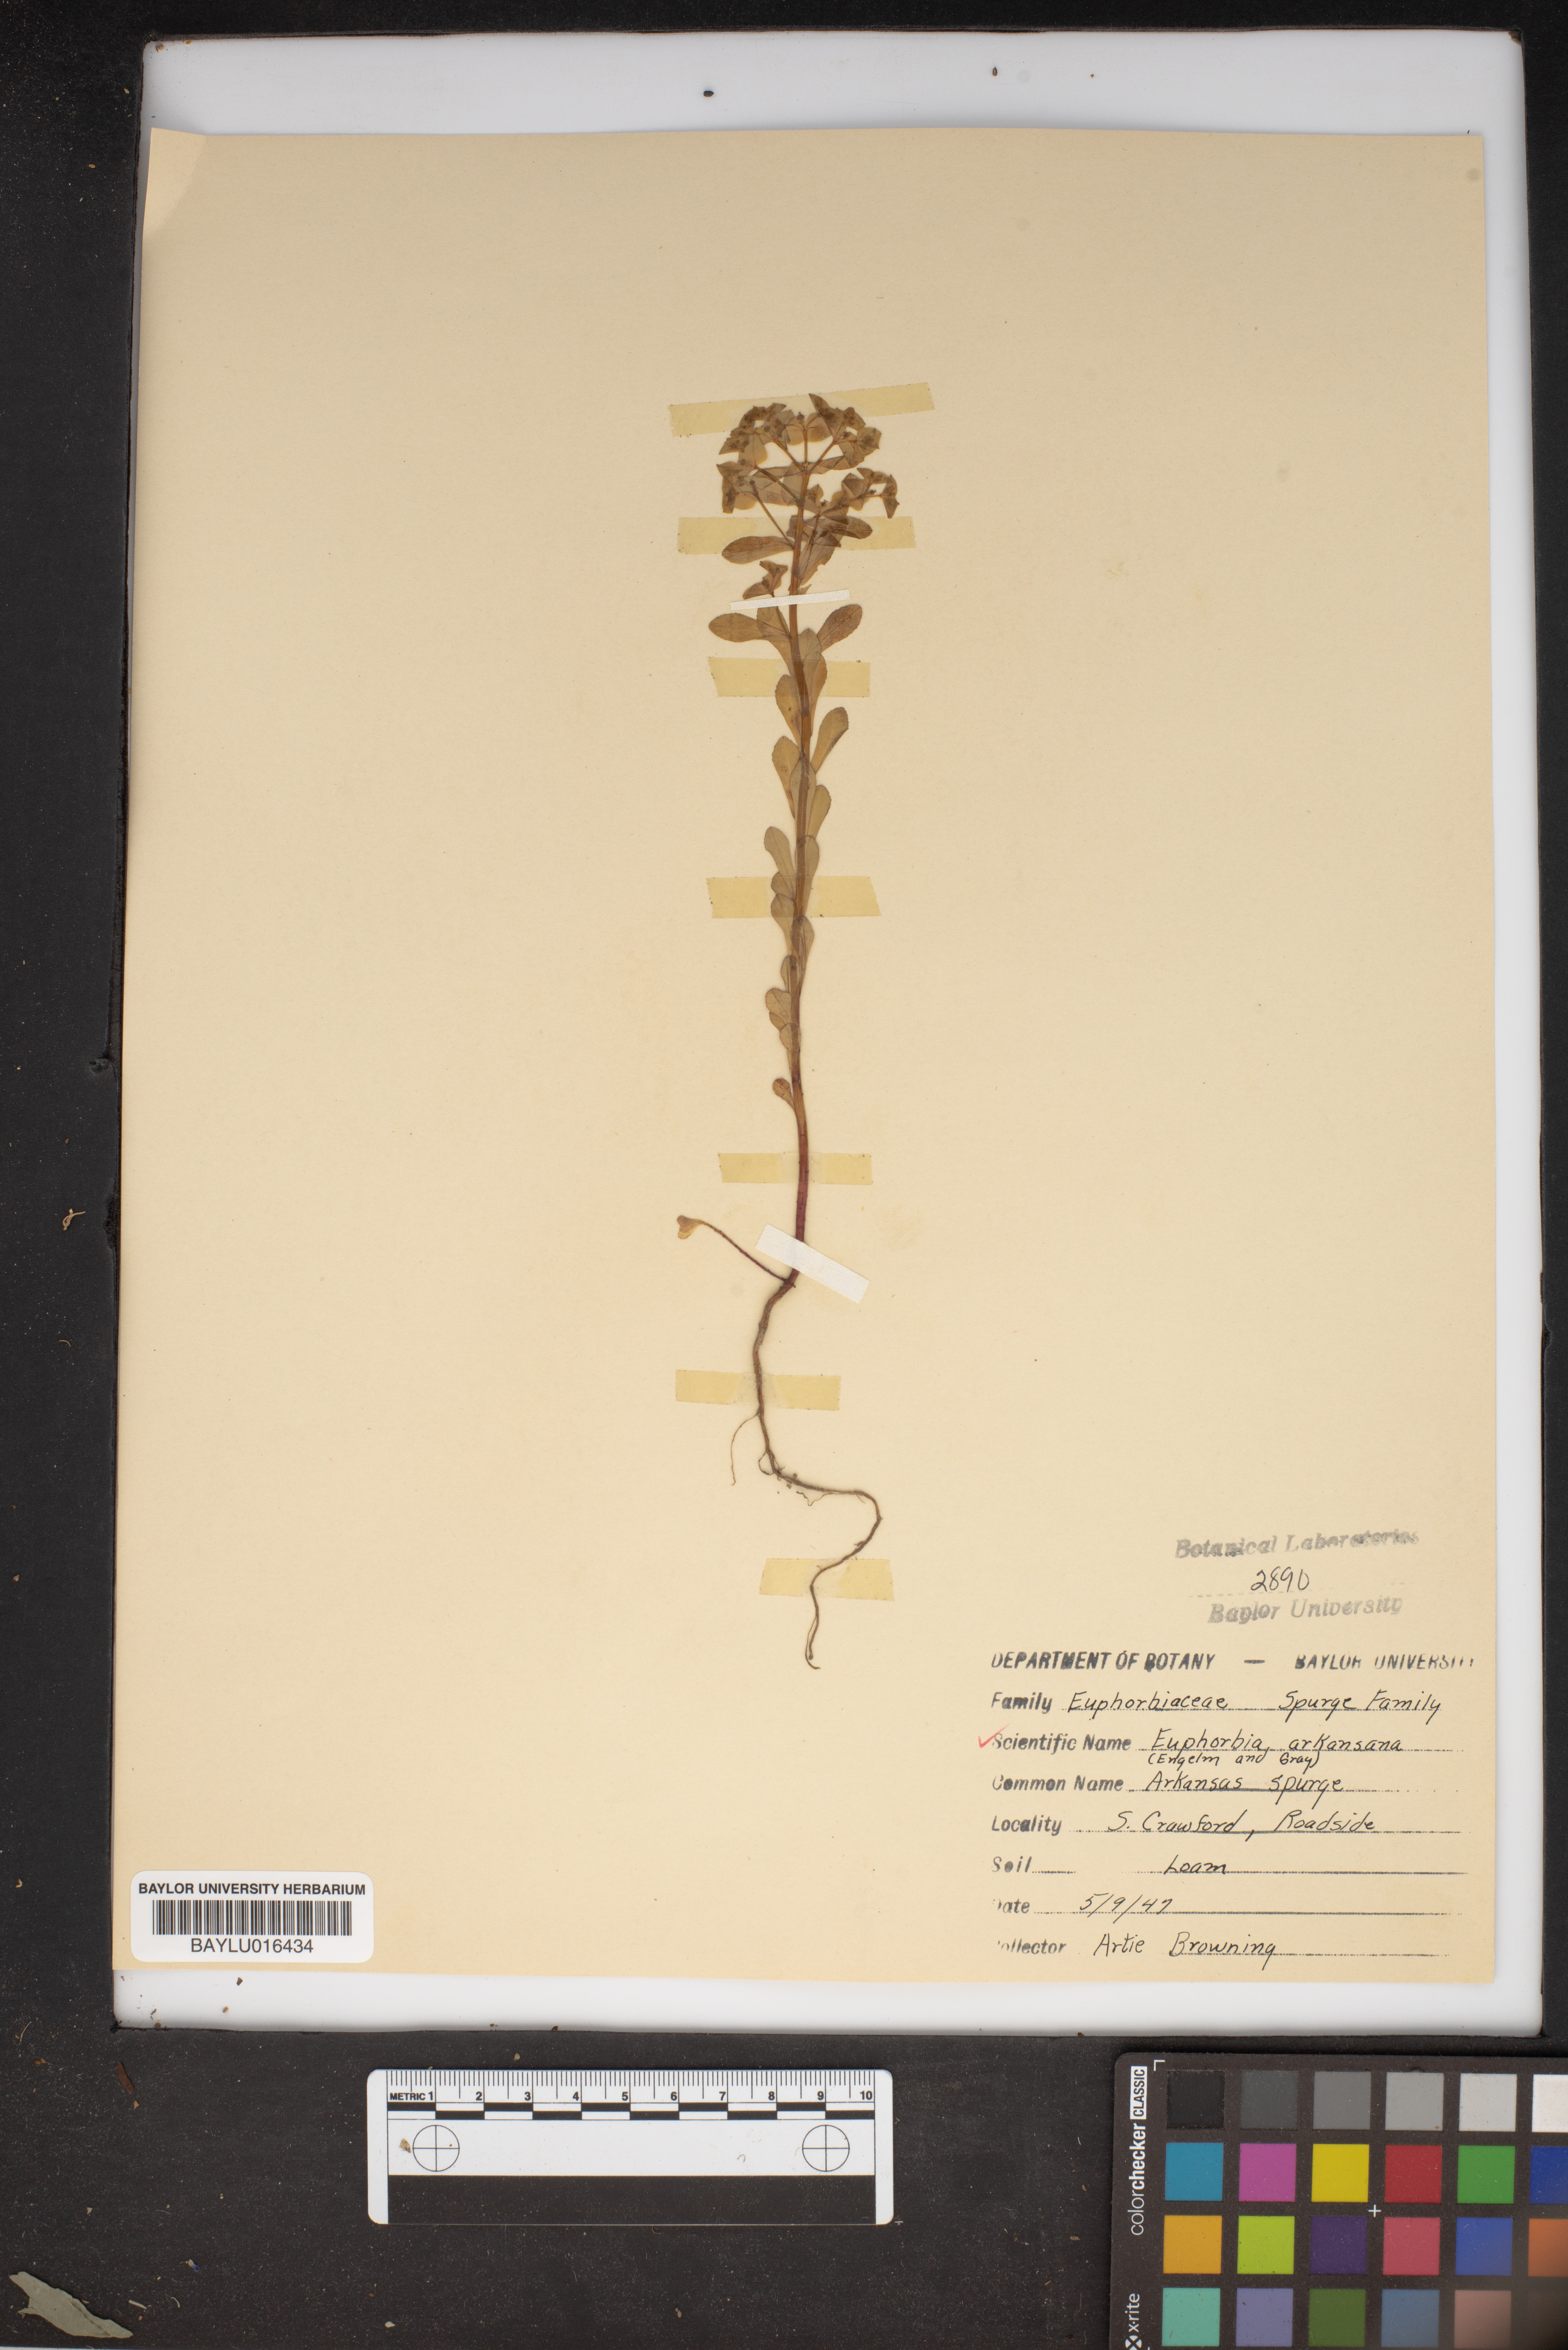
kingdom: Plantae
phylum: Tracheophyta
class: Magnoliopsida
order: Malpighiales
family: Euphorbiaceae
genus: Euphorbia
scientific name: Euphorbia spathulata
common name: Blunt spurge
